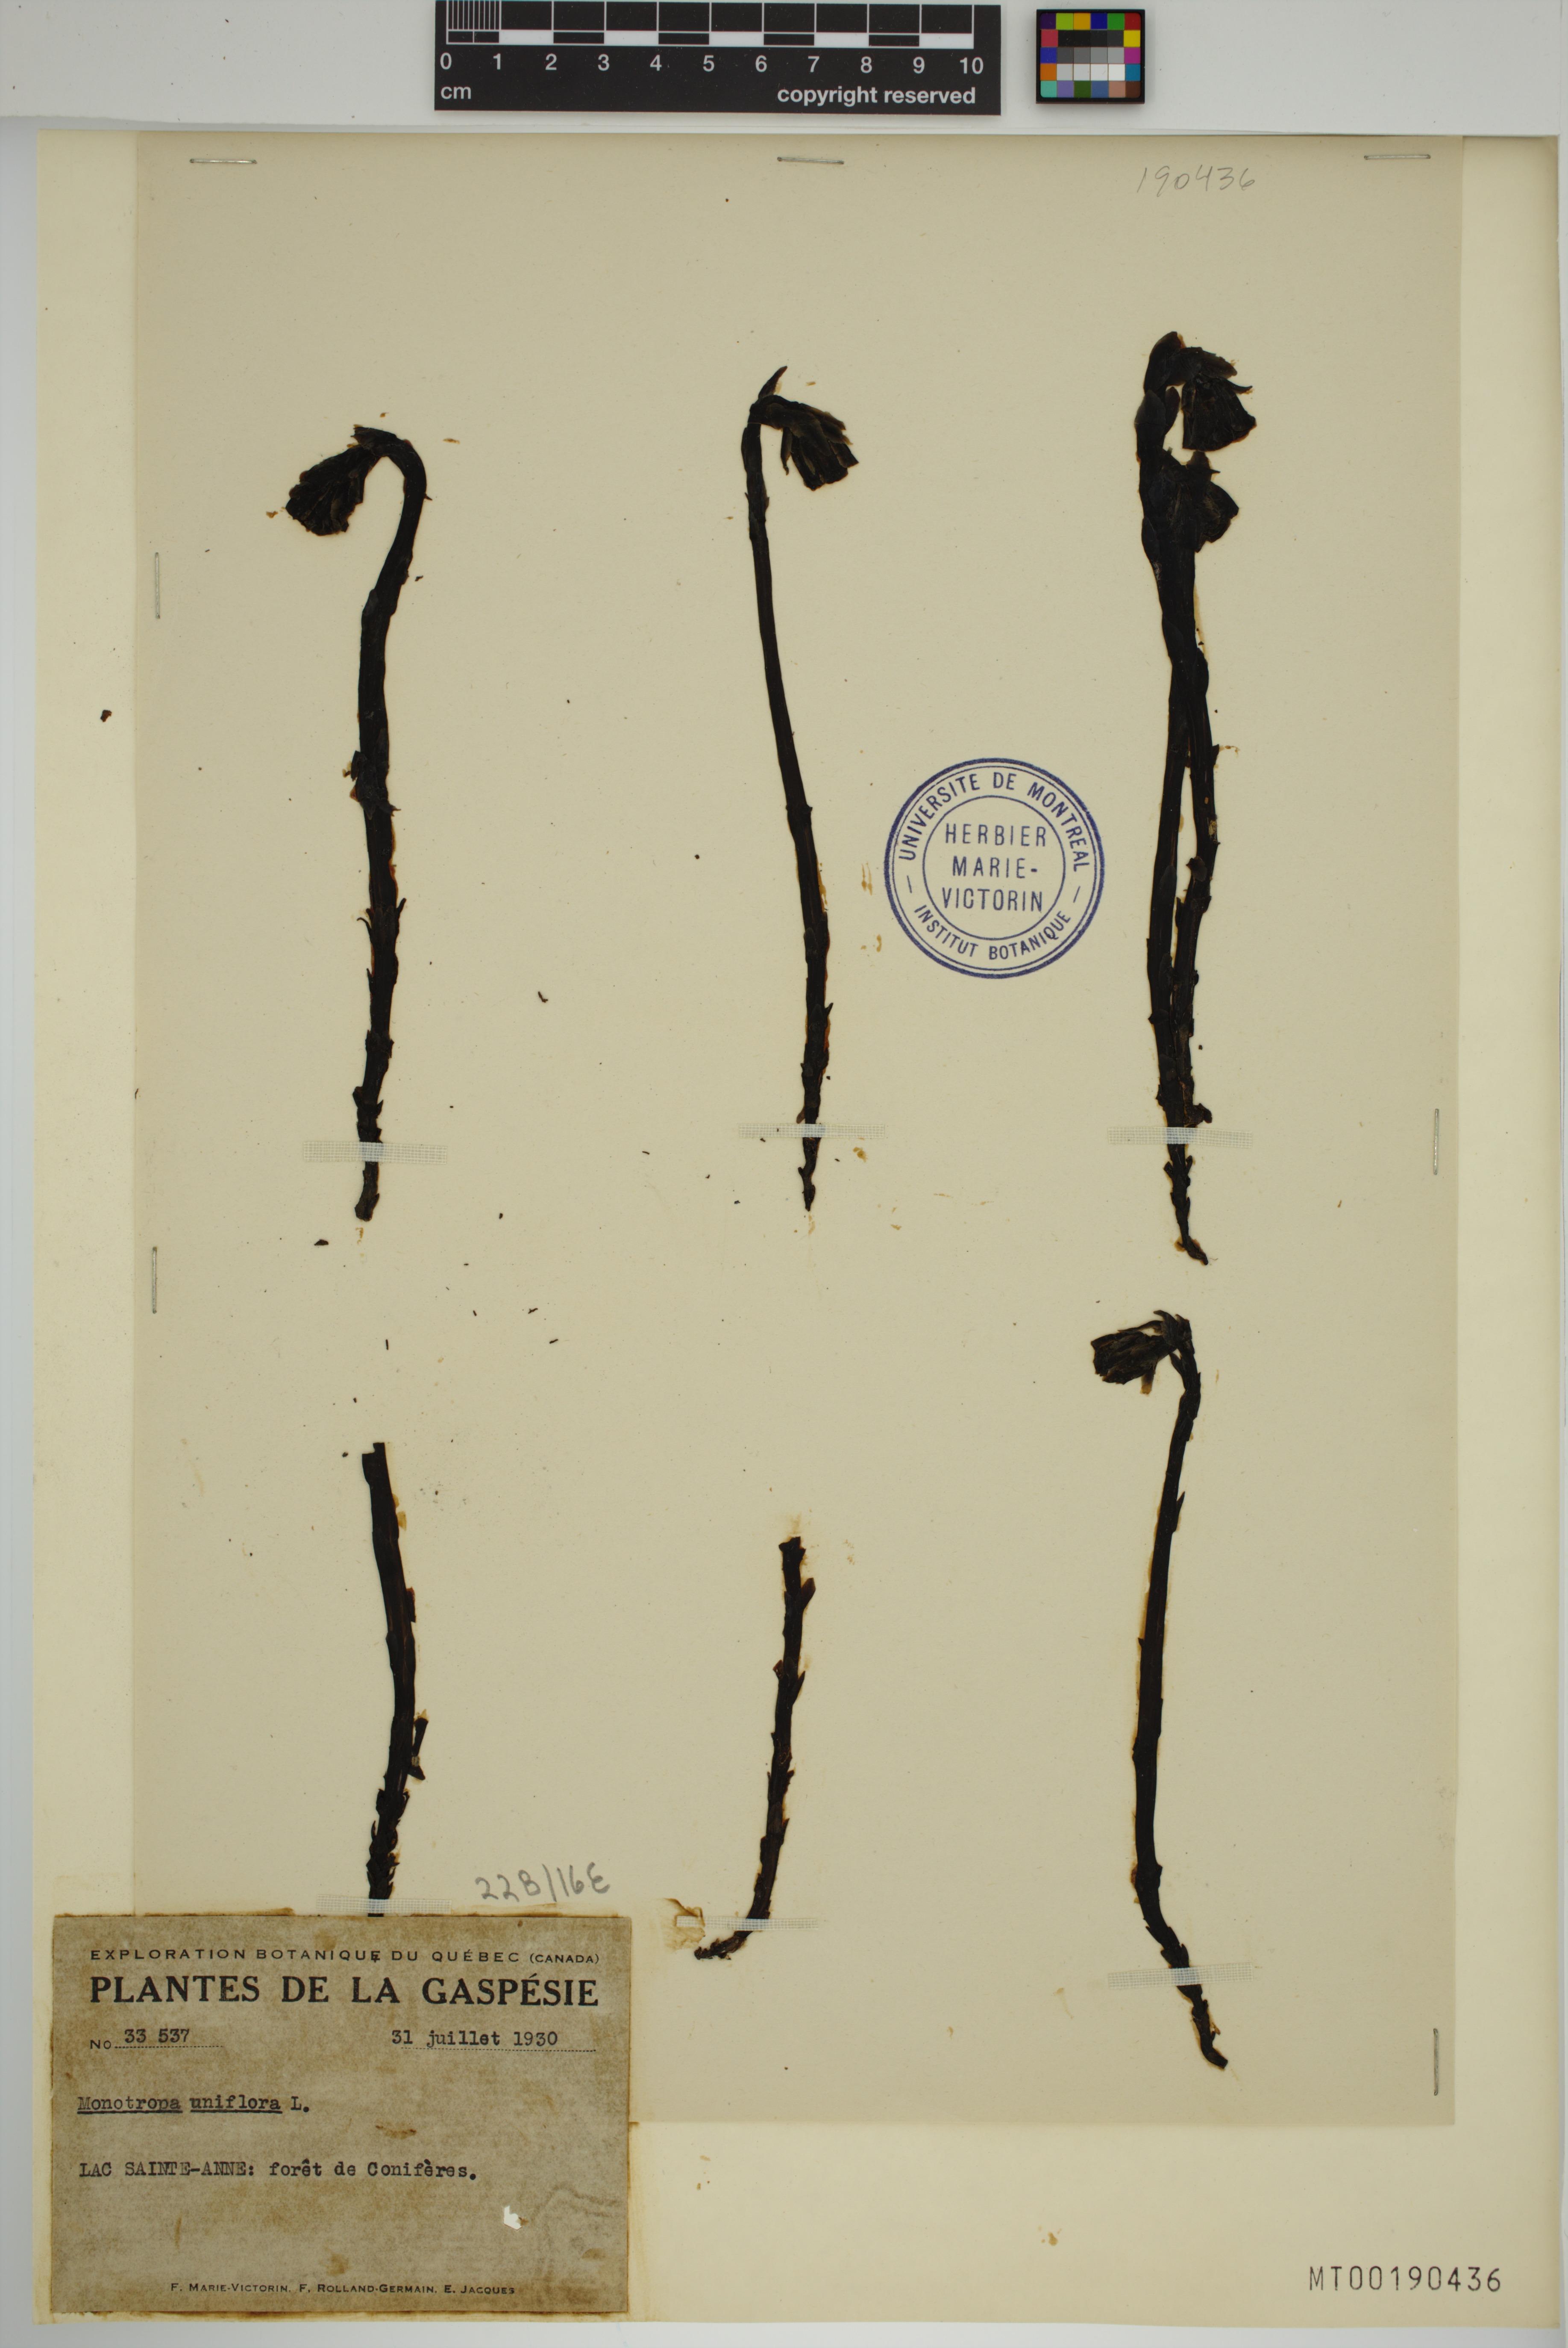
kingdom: Plantae
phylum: Tracheophyta
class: Magnoliopsida
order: Ericales
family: Ericaceae
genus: Monotropa
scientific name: Monotropa uniflora
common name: Convulsion root
